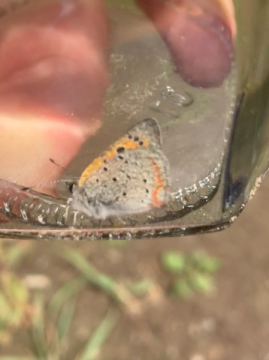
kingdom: Animalia
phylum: Arthropoda
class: Insecta
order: Lepidoptera
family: Lycaenidae
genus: Lycaena
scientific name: Lycaena phlaeas
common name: American Copper
